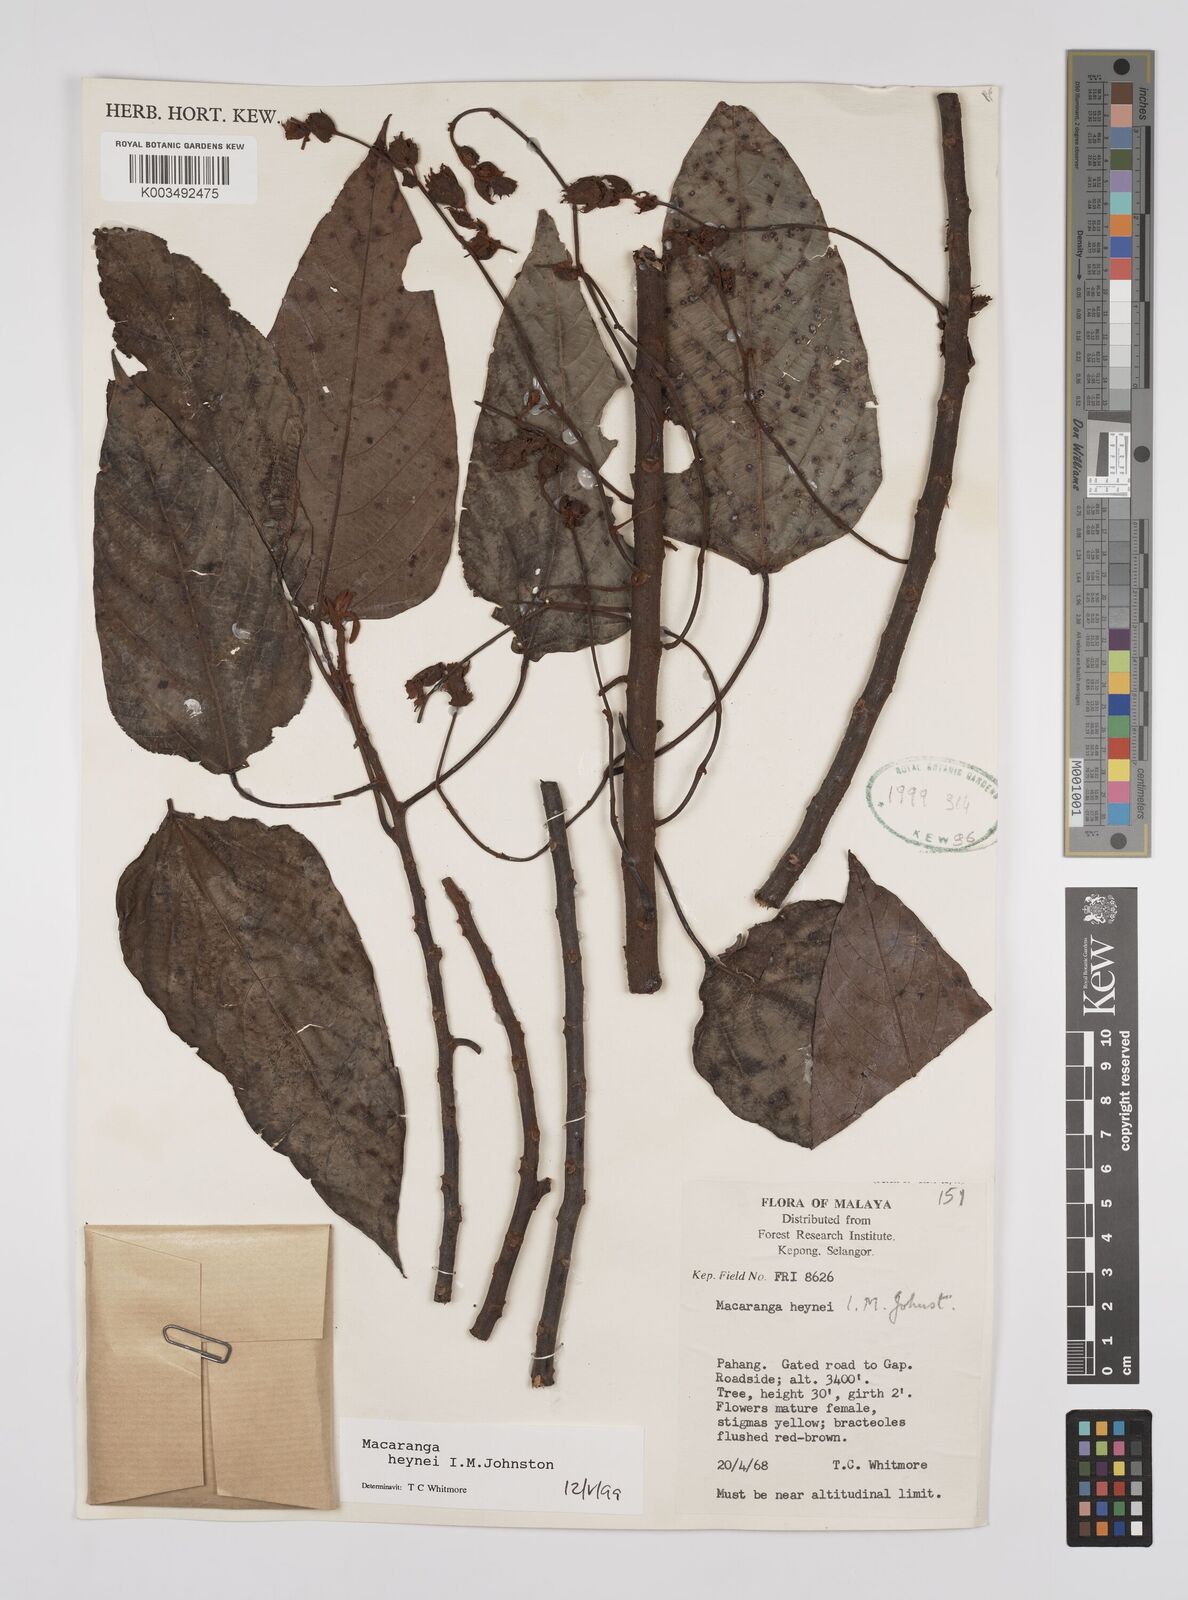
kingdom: Plantae
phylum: Tracheophyta
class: Magnoliopsida
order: Malpighiales
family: Euphorbiaceae
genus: Macaranga
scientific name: Macaranga heynei
